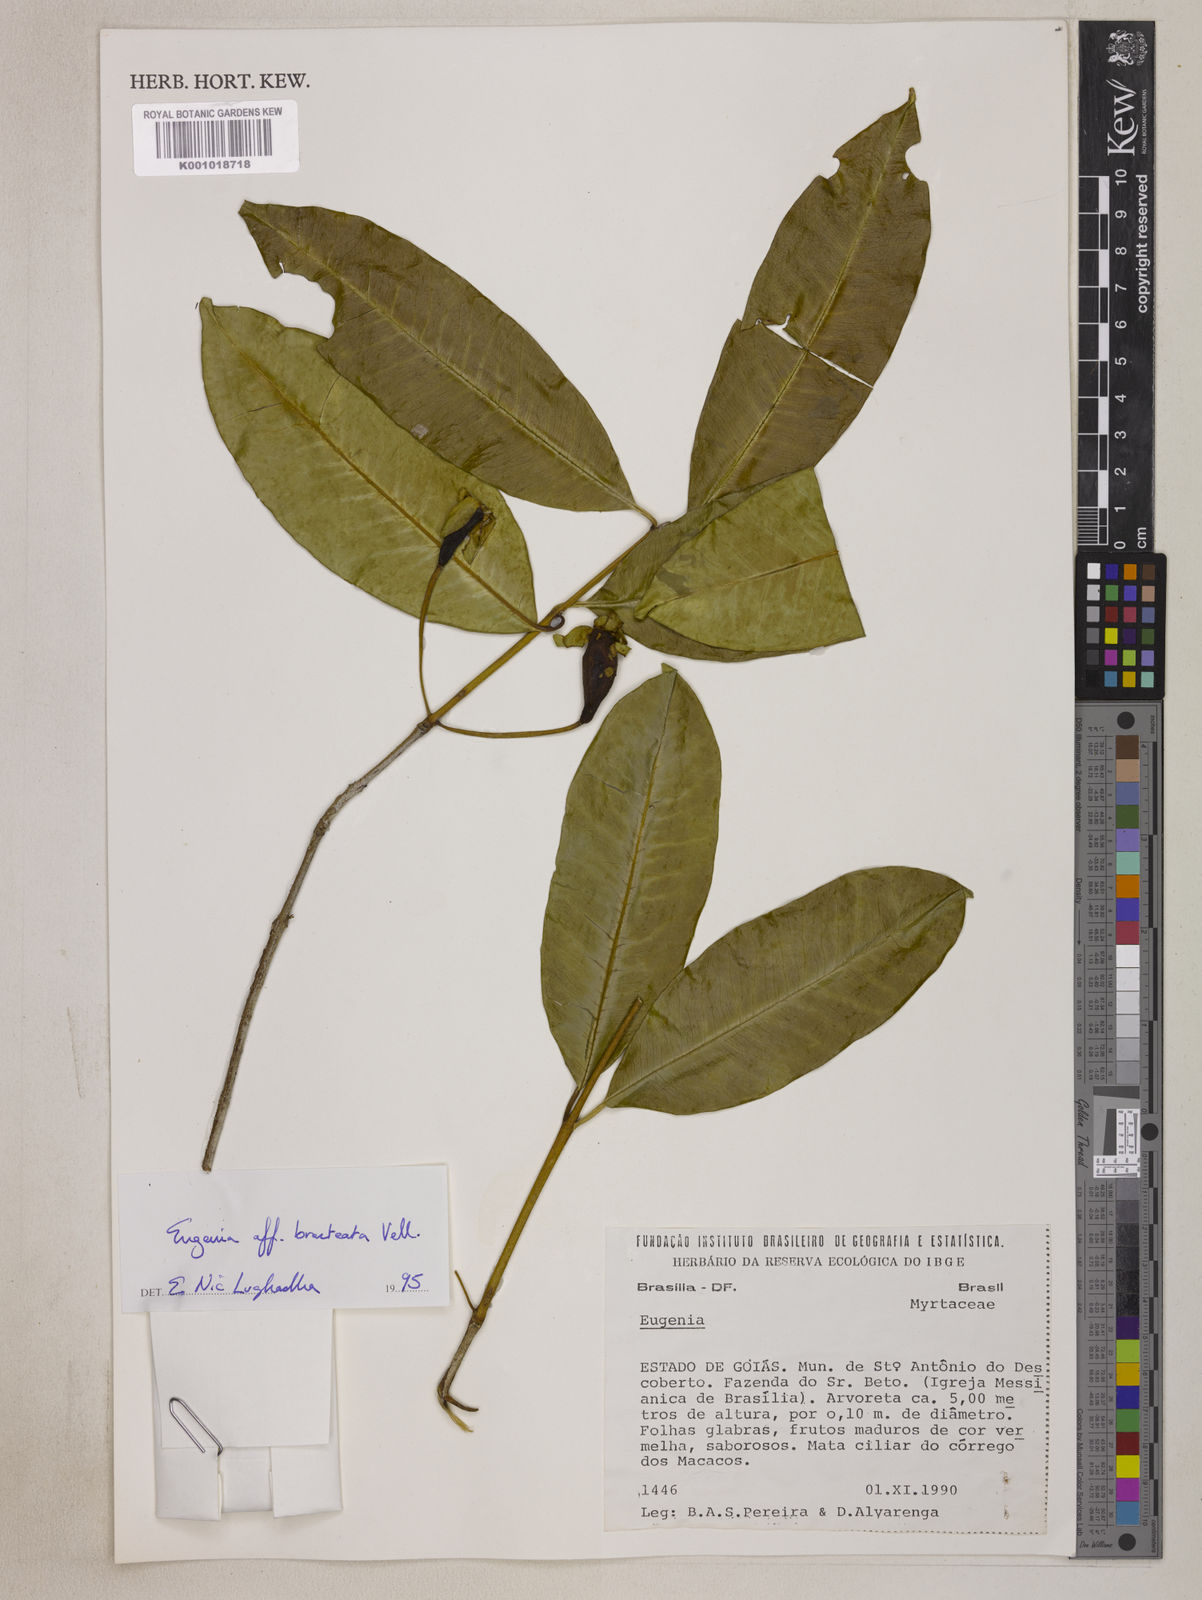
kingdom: Plantae
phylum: Tracheophyta
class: Magnoliopsida
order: Myrtales
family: Myrtaceae
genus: Eugenia
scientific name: Eugenia involucrata
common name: Cherry-of-the-rio grande
